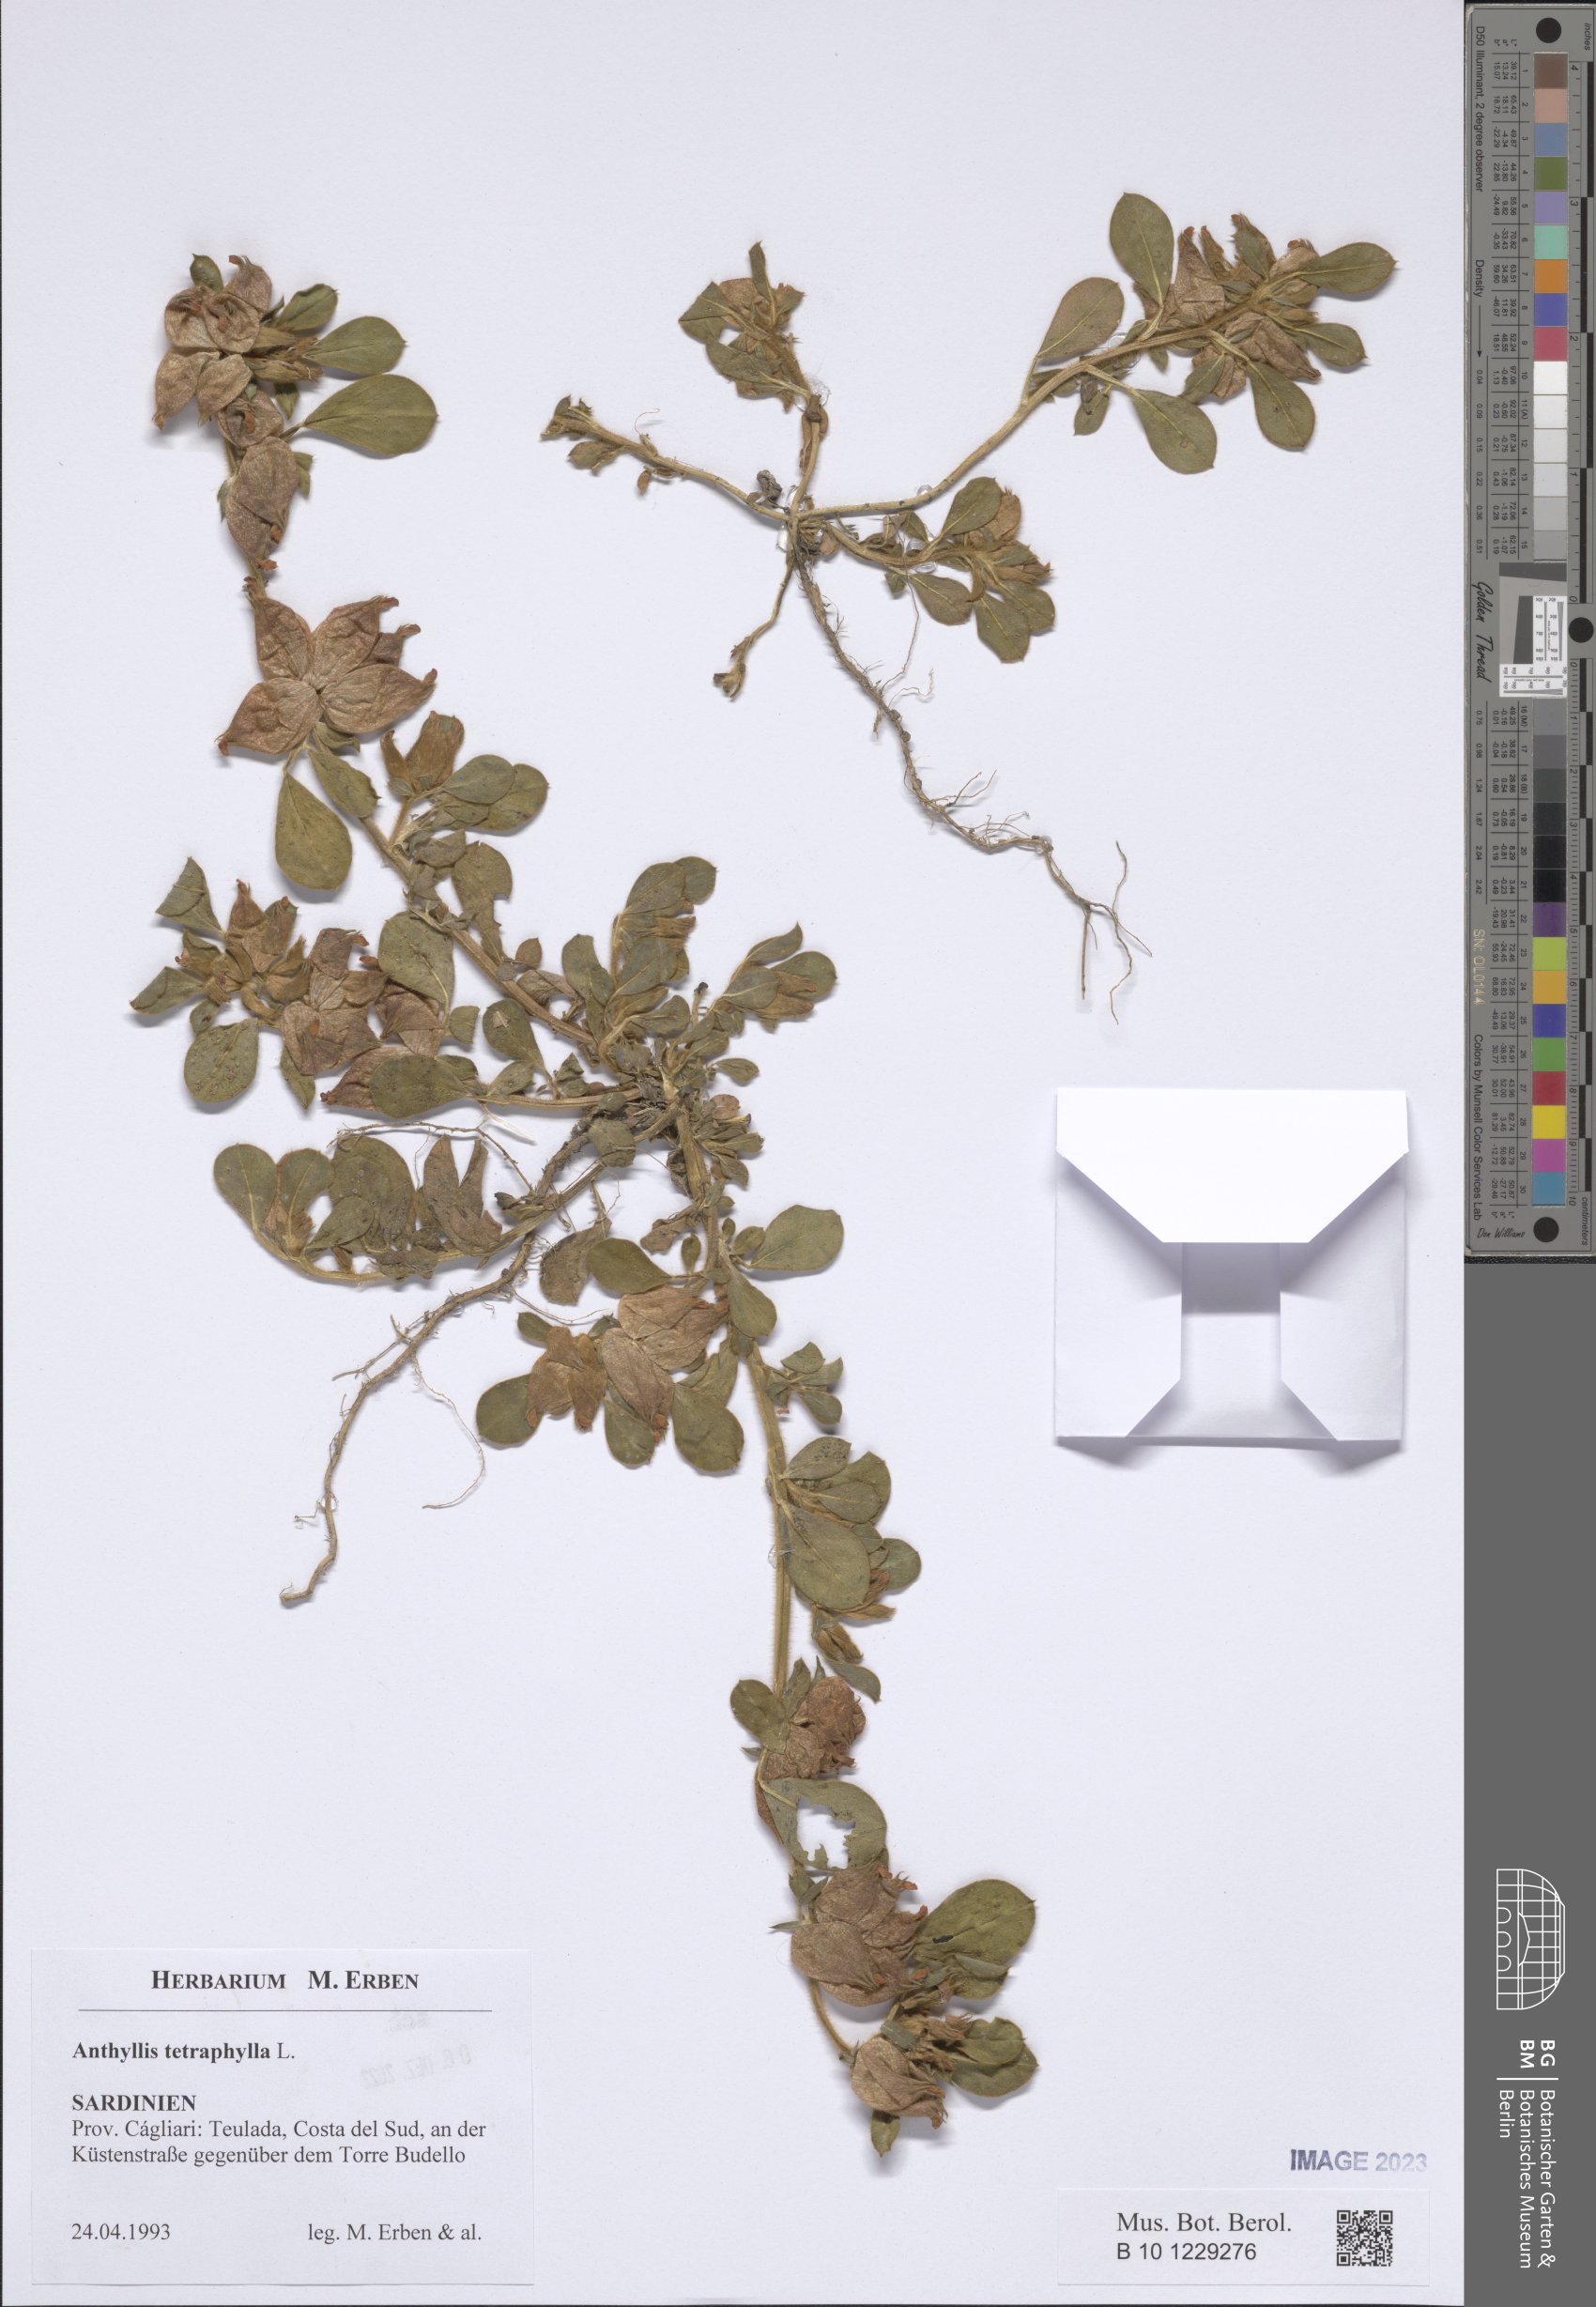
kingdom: Plantae
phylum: Tracheophyta
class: Magnoliopsida
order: Fabales
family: Fabaceae
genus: Tripodion
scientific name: Tripodion tetraphyllum
